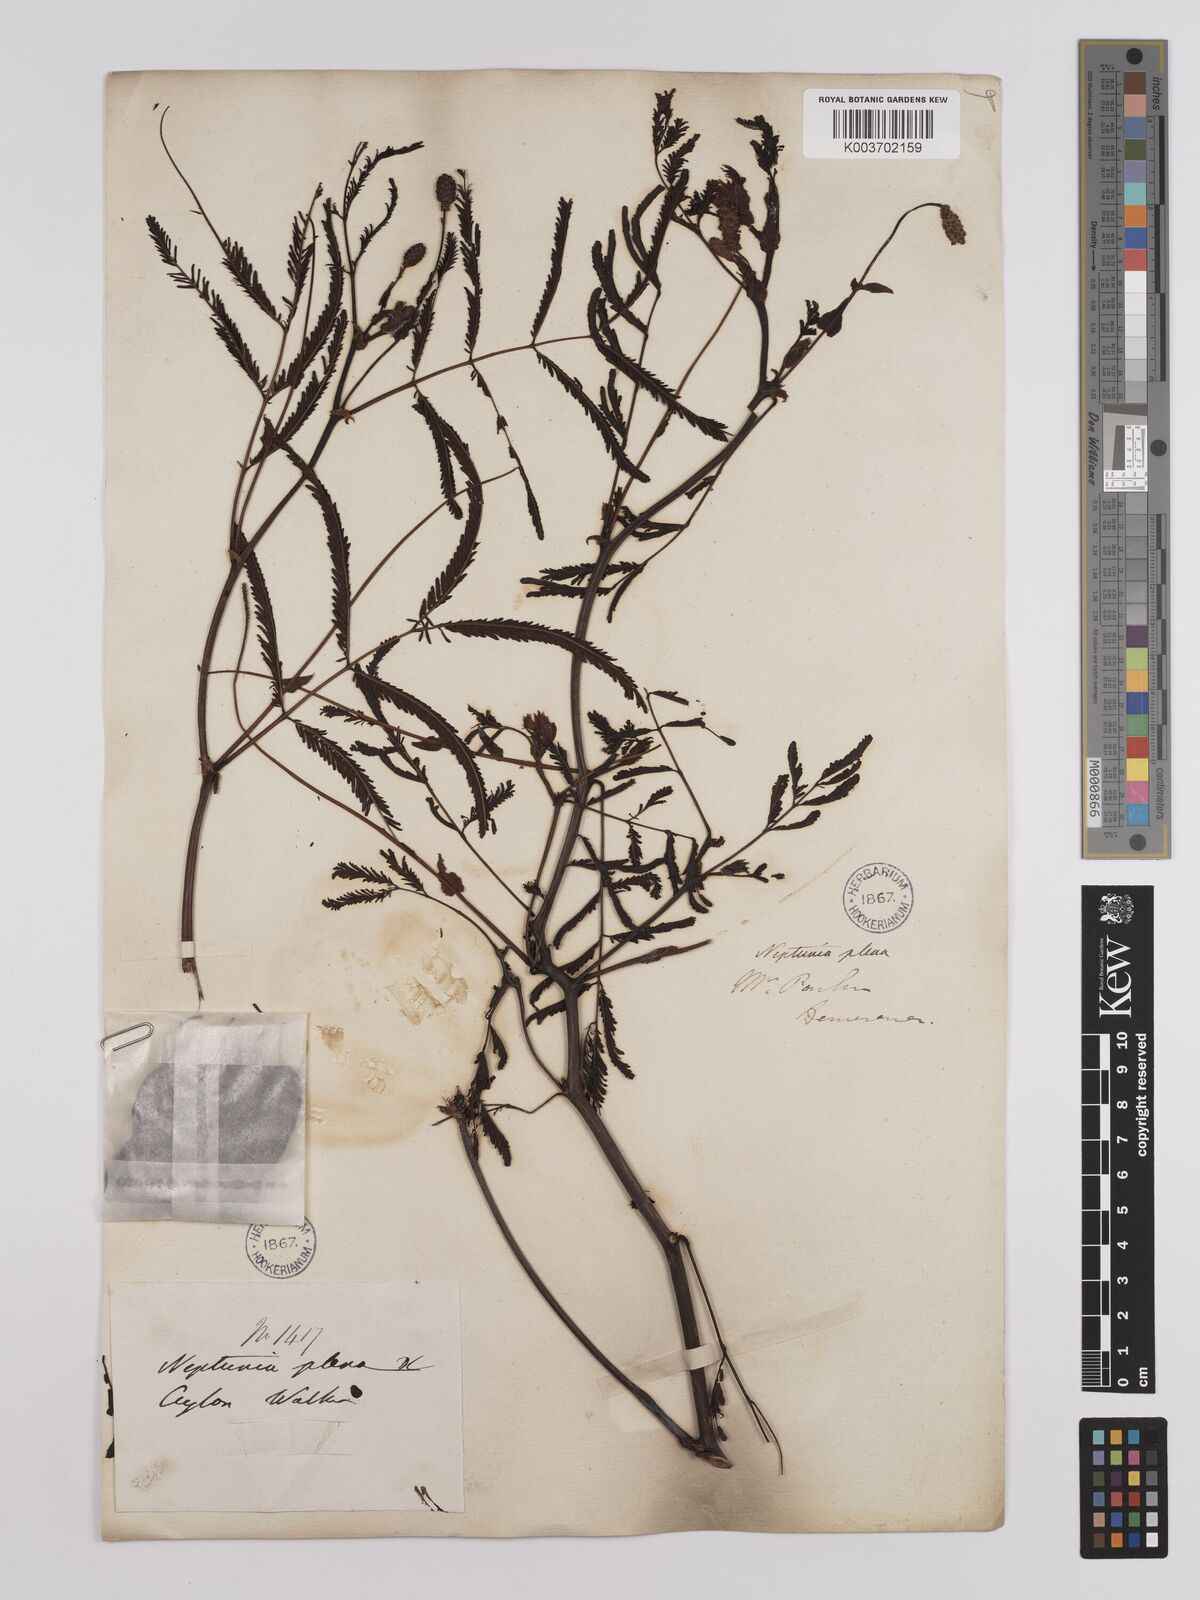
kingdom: Plantae
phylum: Tracheophyta
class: Magnoliopsida
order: Fabales
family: Fabaceae
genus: Neptunia
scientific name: Neptunia plena
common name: Dead and awake
